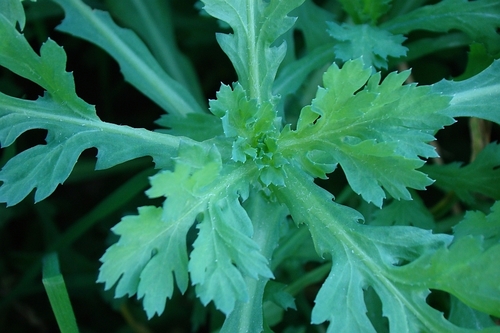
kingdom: Plantae
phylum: Tracheophyta
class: Magnoliopsida
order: Asterales
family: Asteraceae
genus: Glebionis
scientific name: Glebionis coronaria
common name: Crowndaisy
